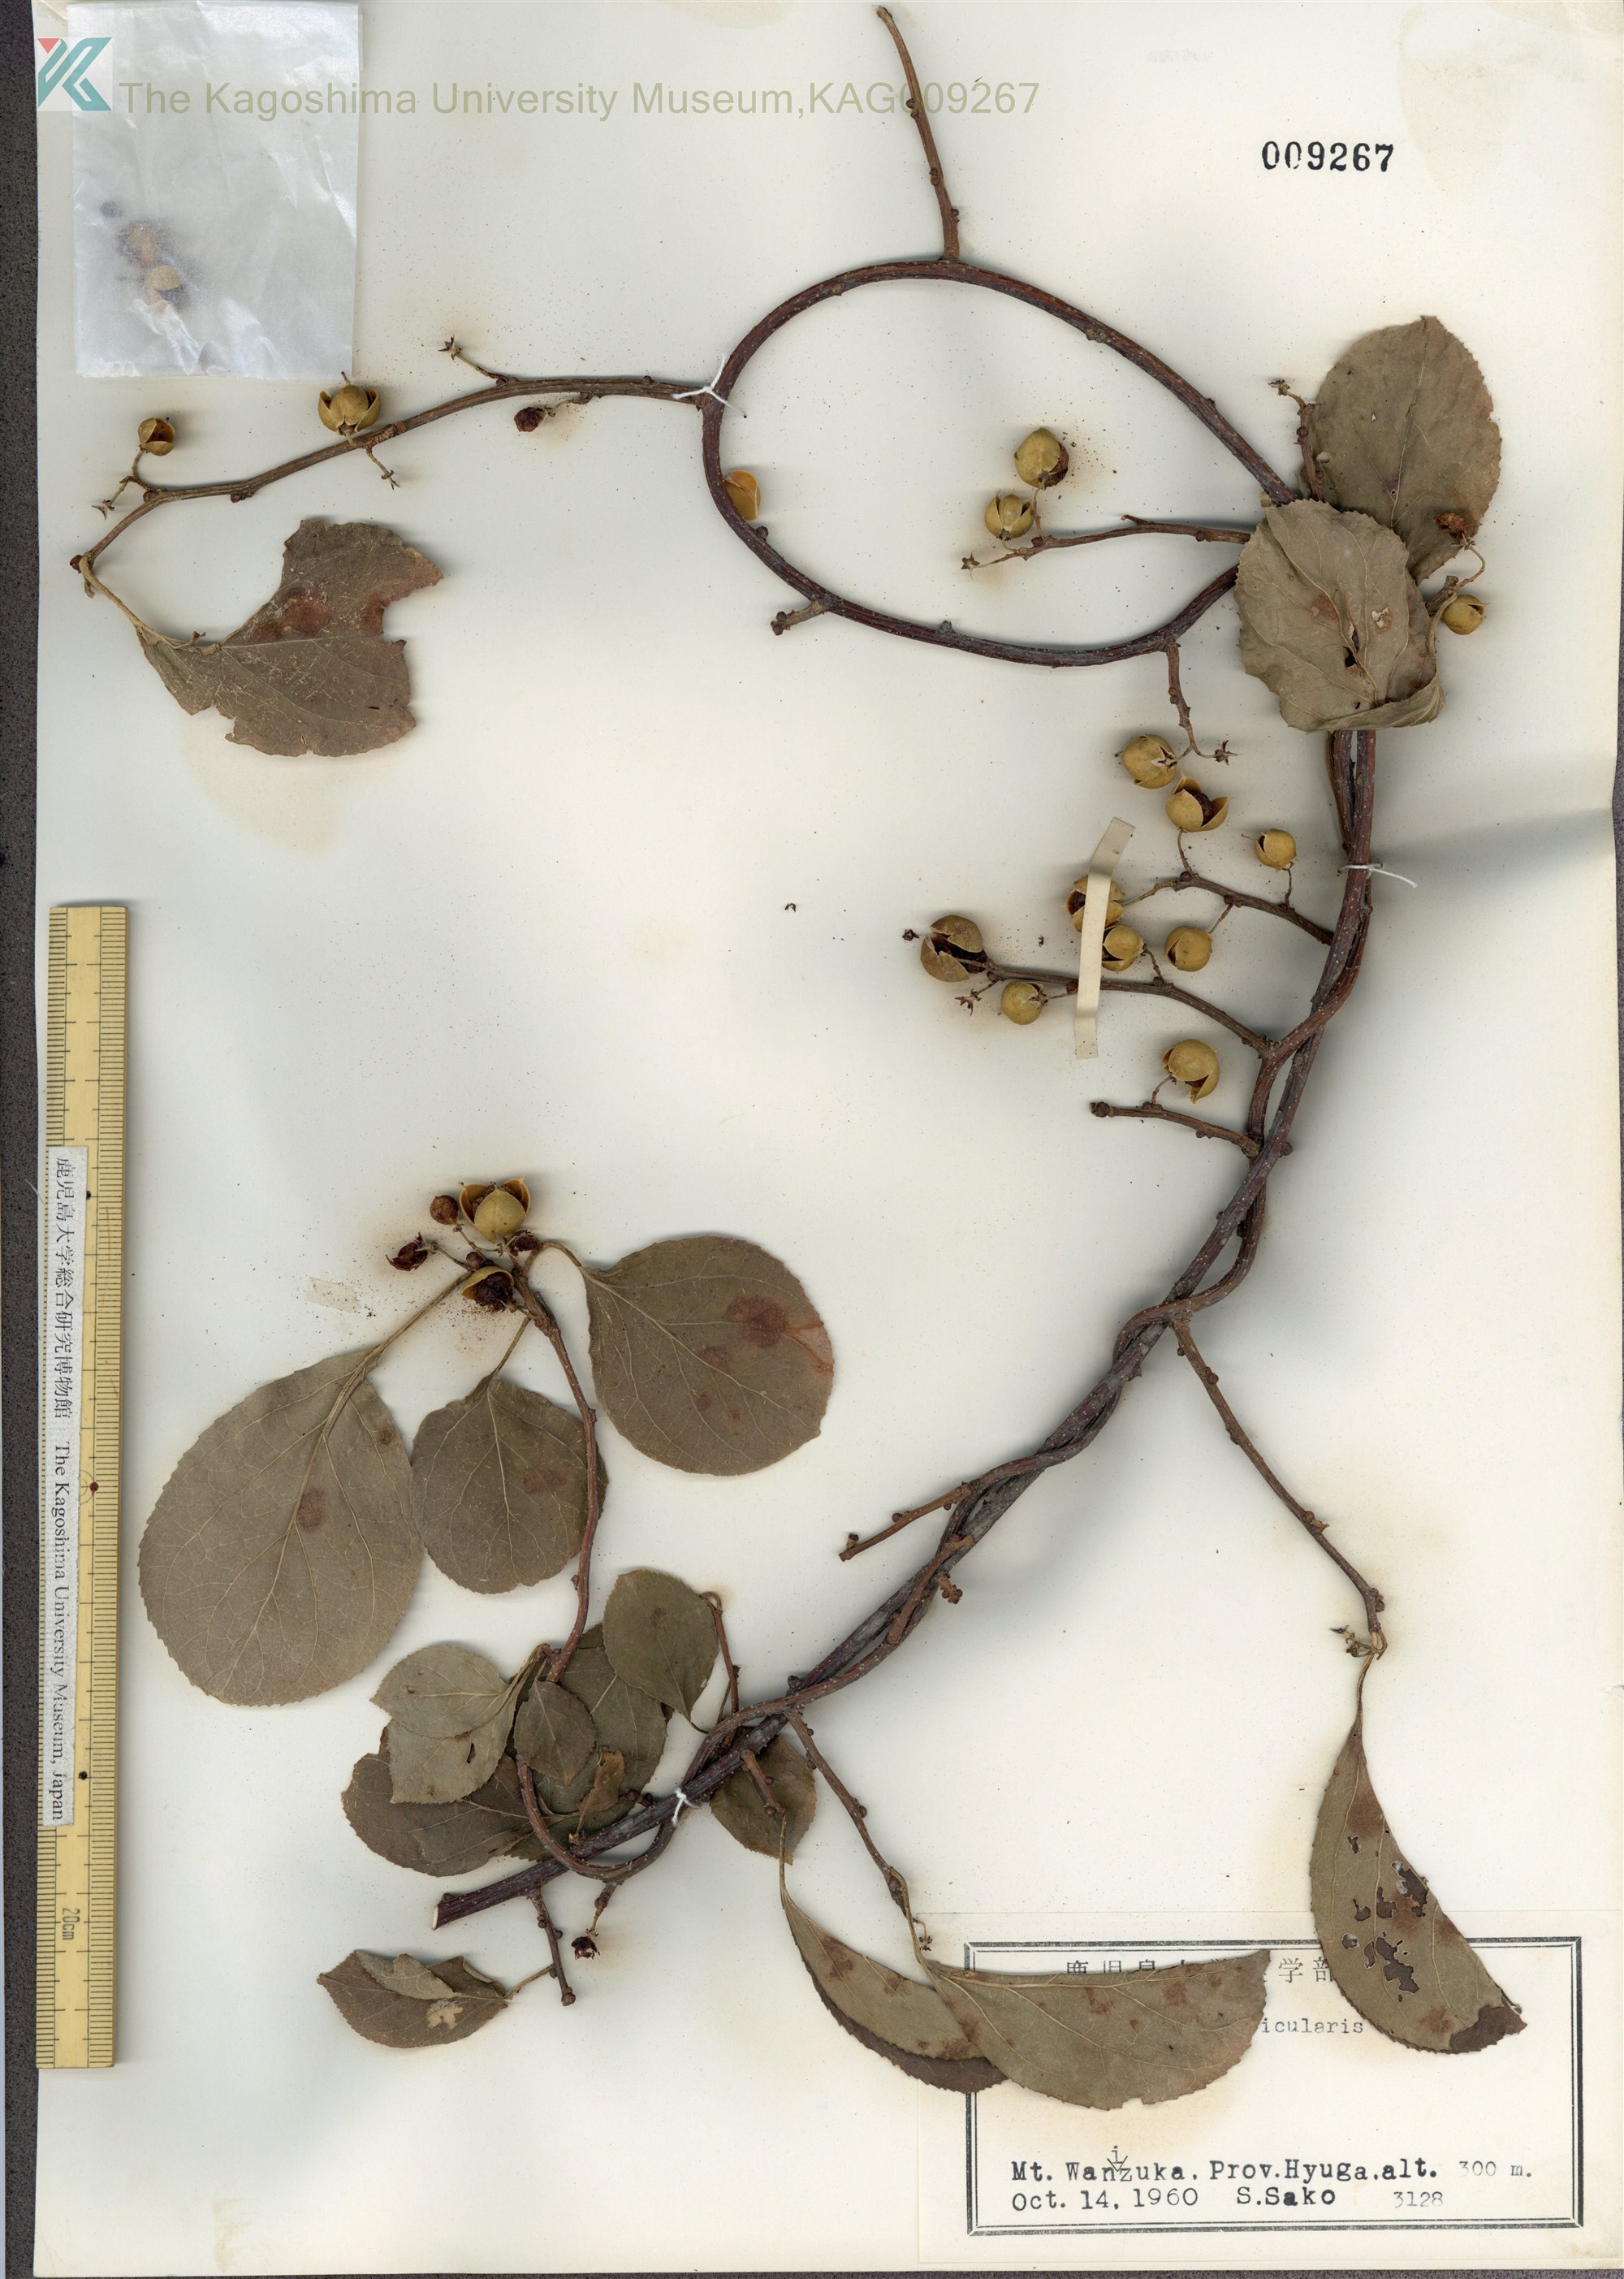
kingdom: Plantae
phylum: Tracheophyta
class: Magnoliopsida
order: Celastrales
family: Celastraceae
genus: Celastrus
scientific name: Celastrus orbiculatus
